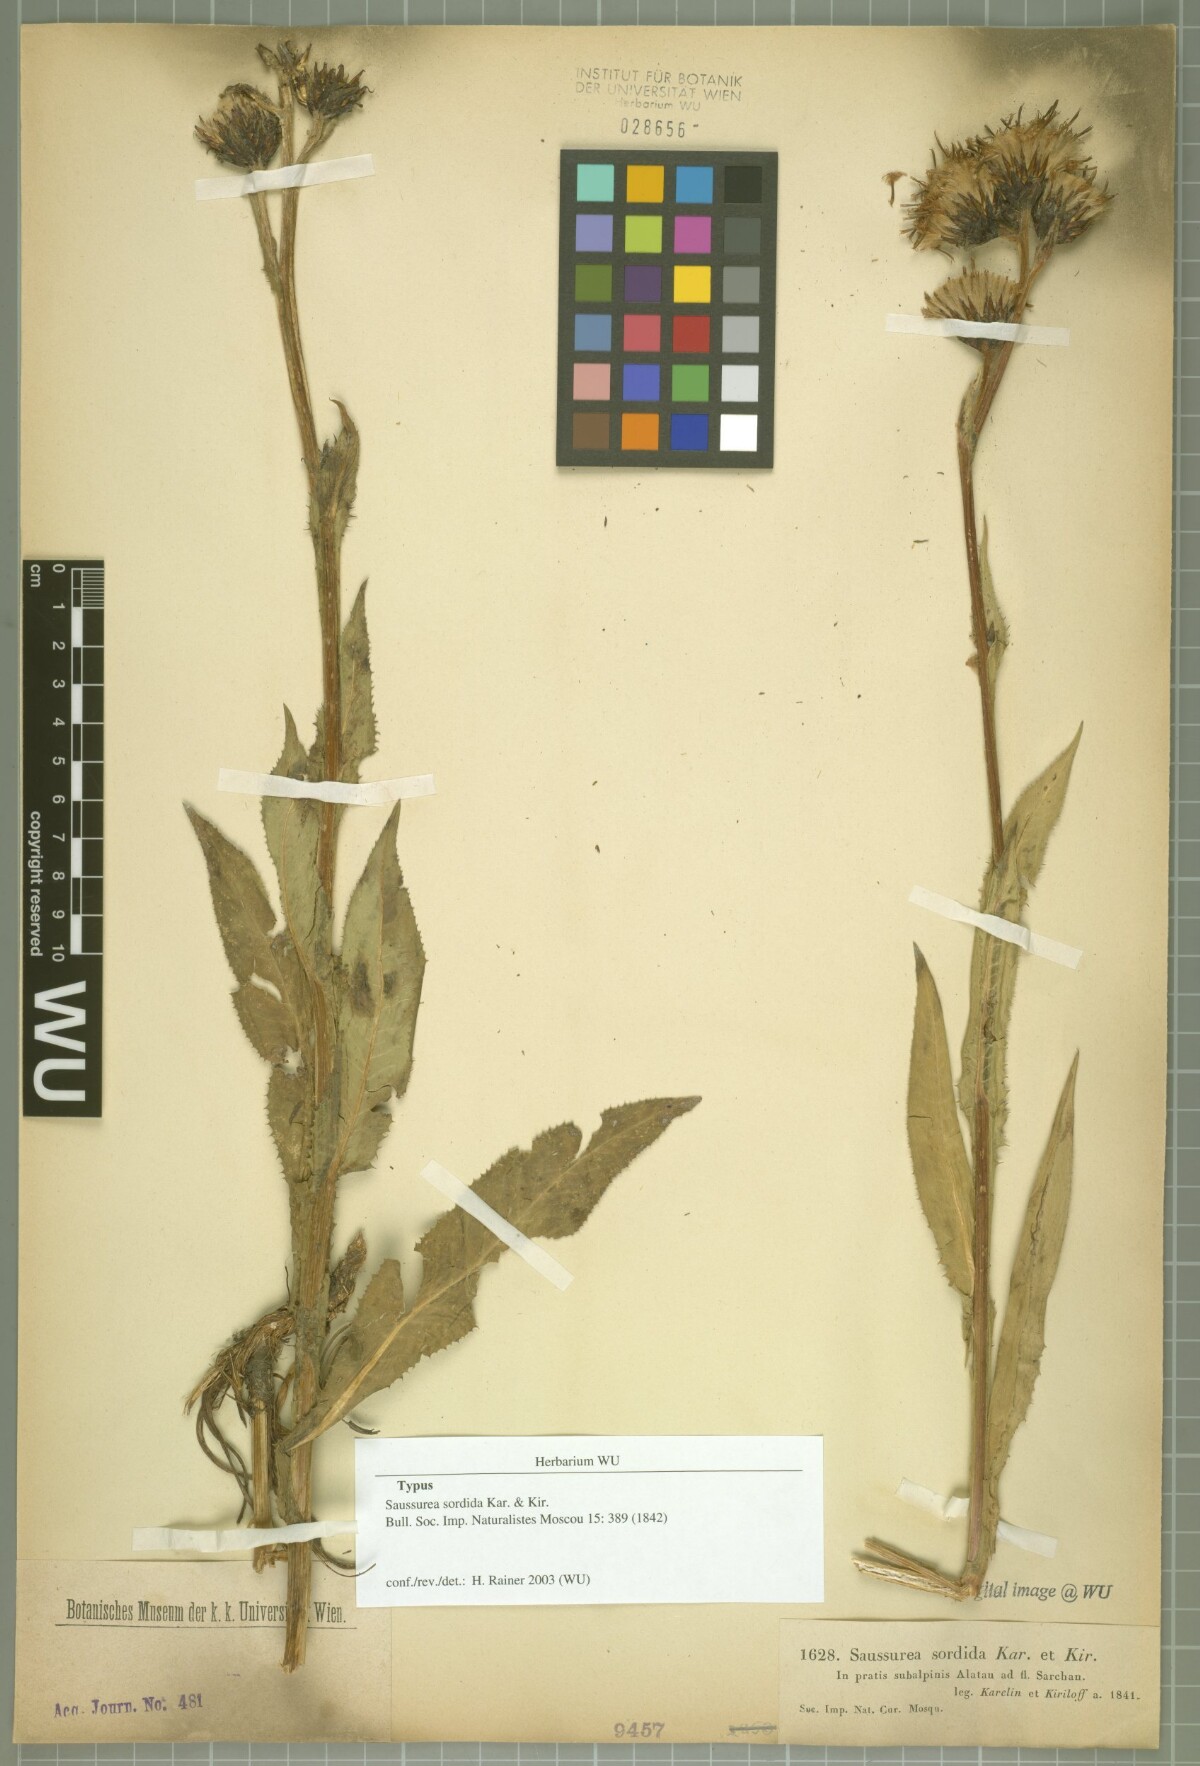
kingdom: Plantae
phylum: Tracheophyta
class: Magnoliopsida
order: Asterales
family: Asteraceae
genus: Saussurea
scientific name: Saussurea sordida
